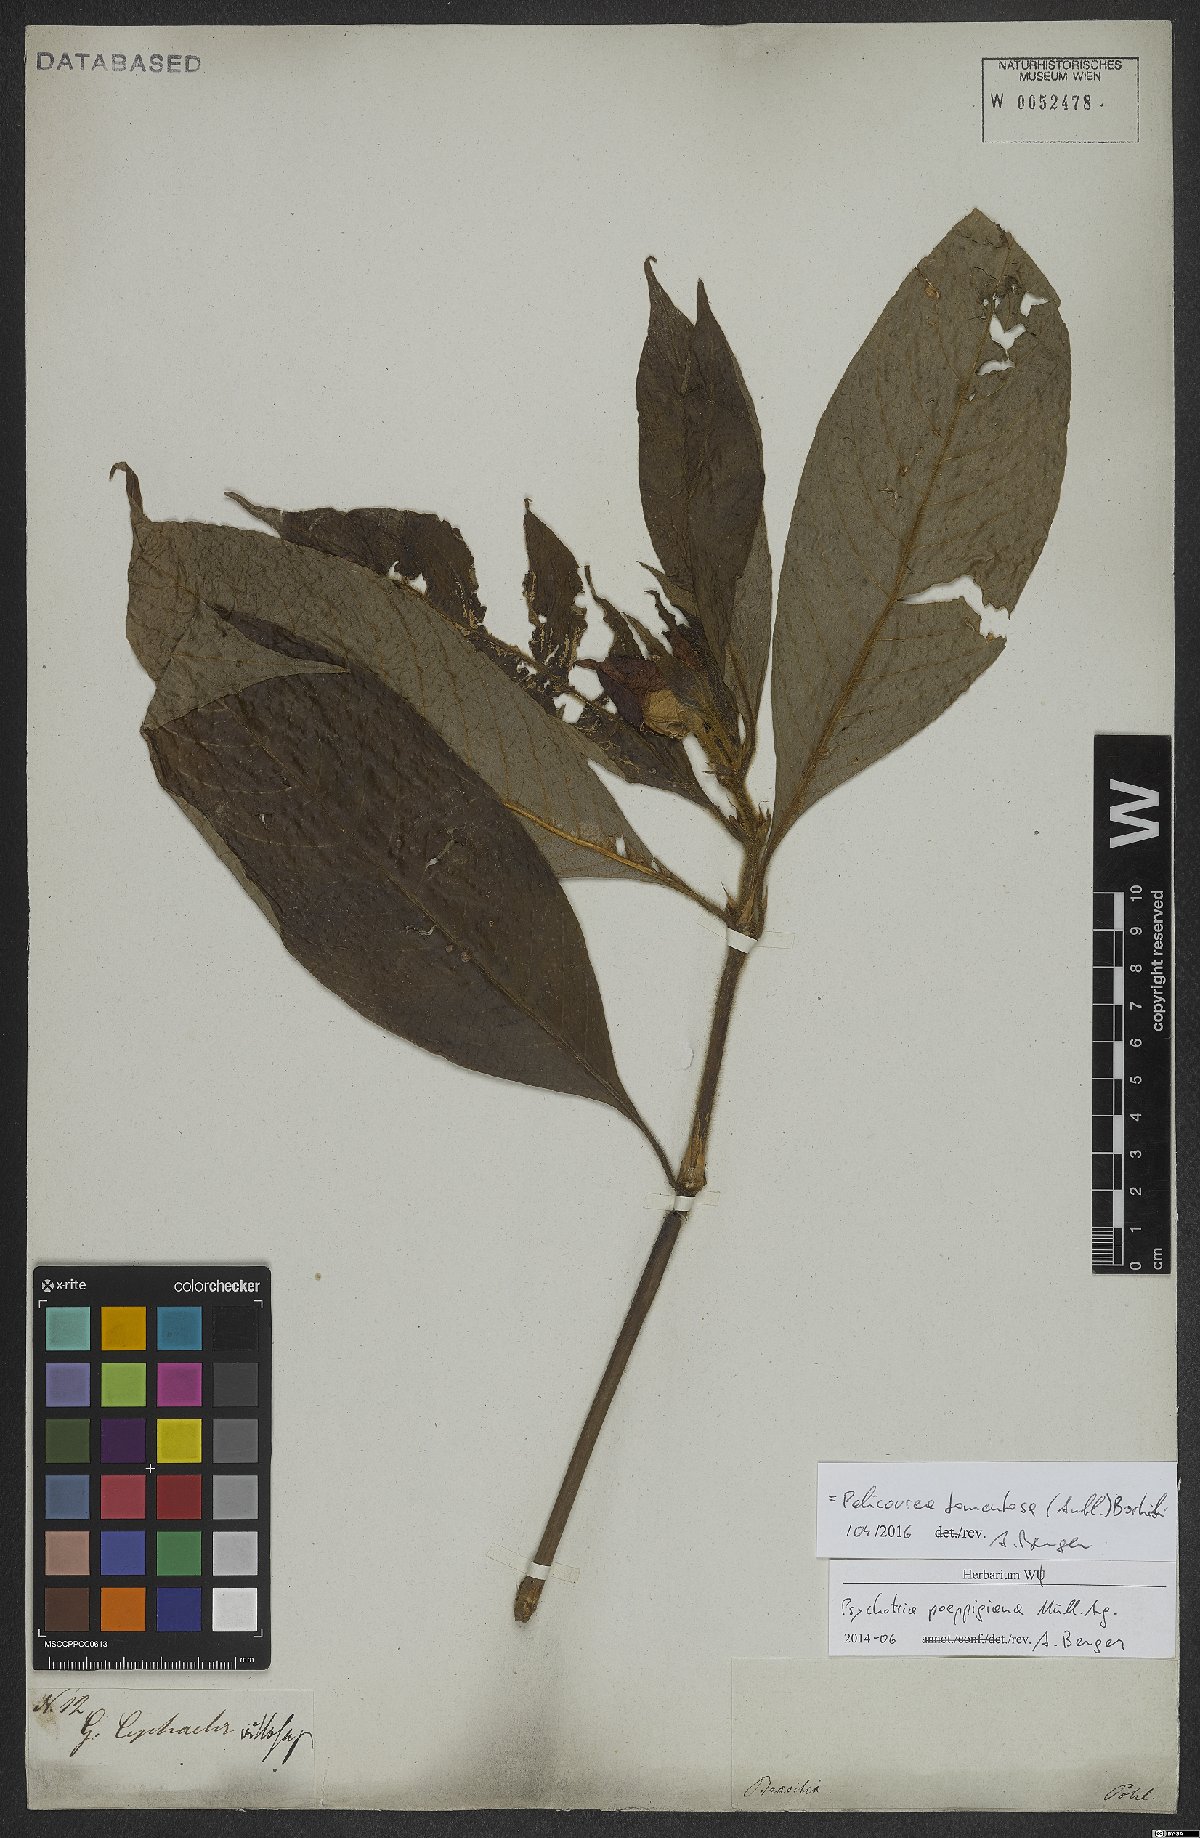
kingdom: Plantae
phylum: Tracheophyta
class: Magnoliopsida
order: Gentianales
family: Rubiaceae
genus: Palicourea
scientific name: Palicourea tomentosa
